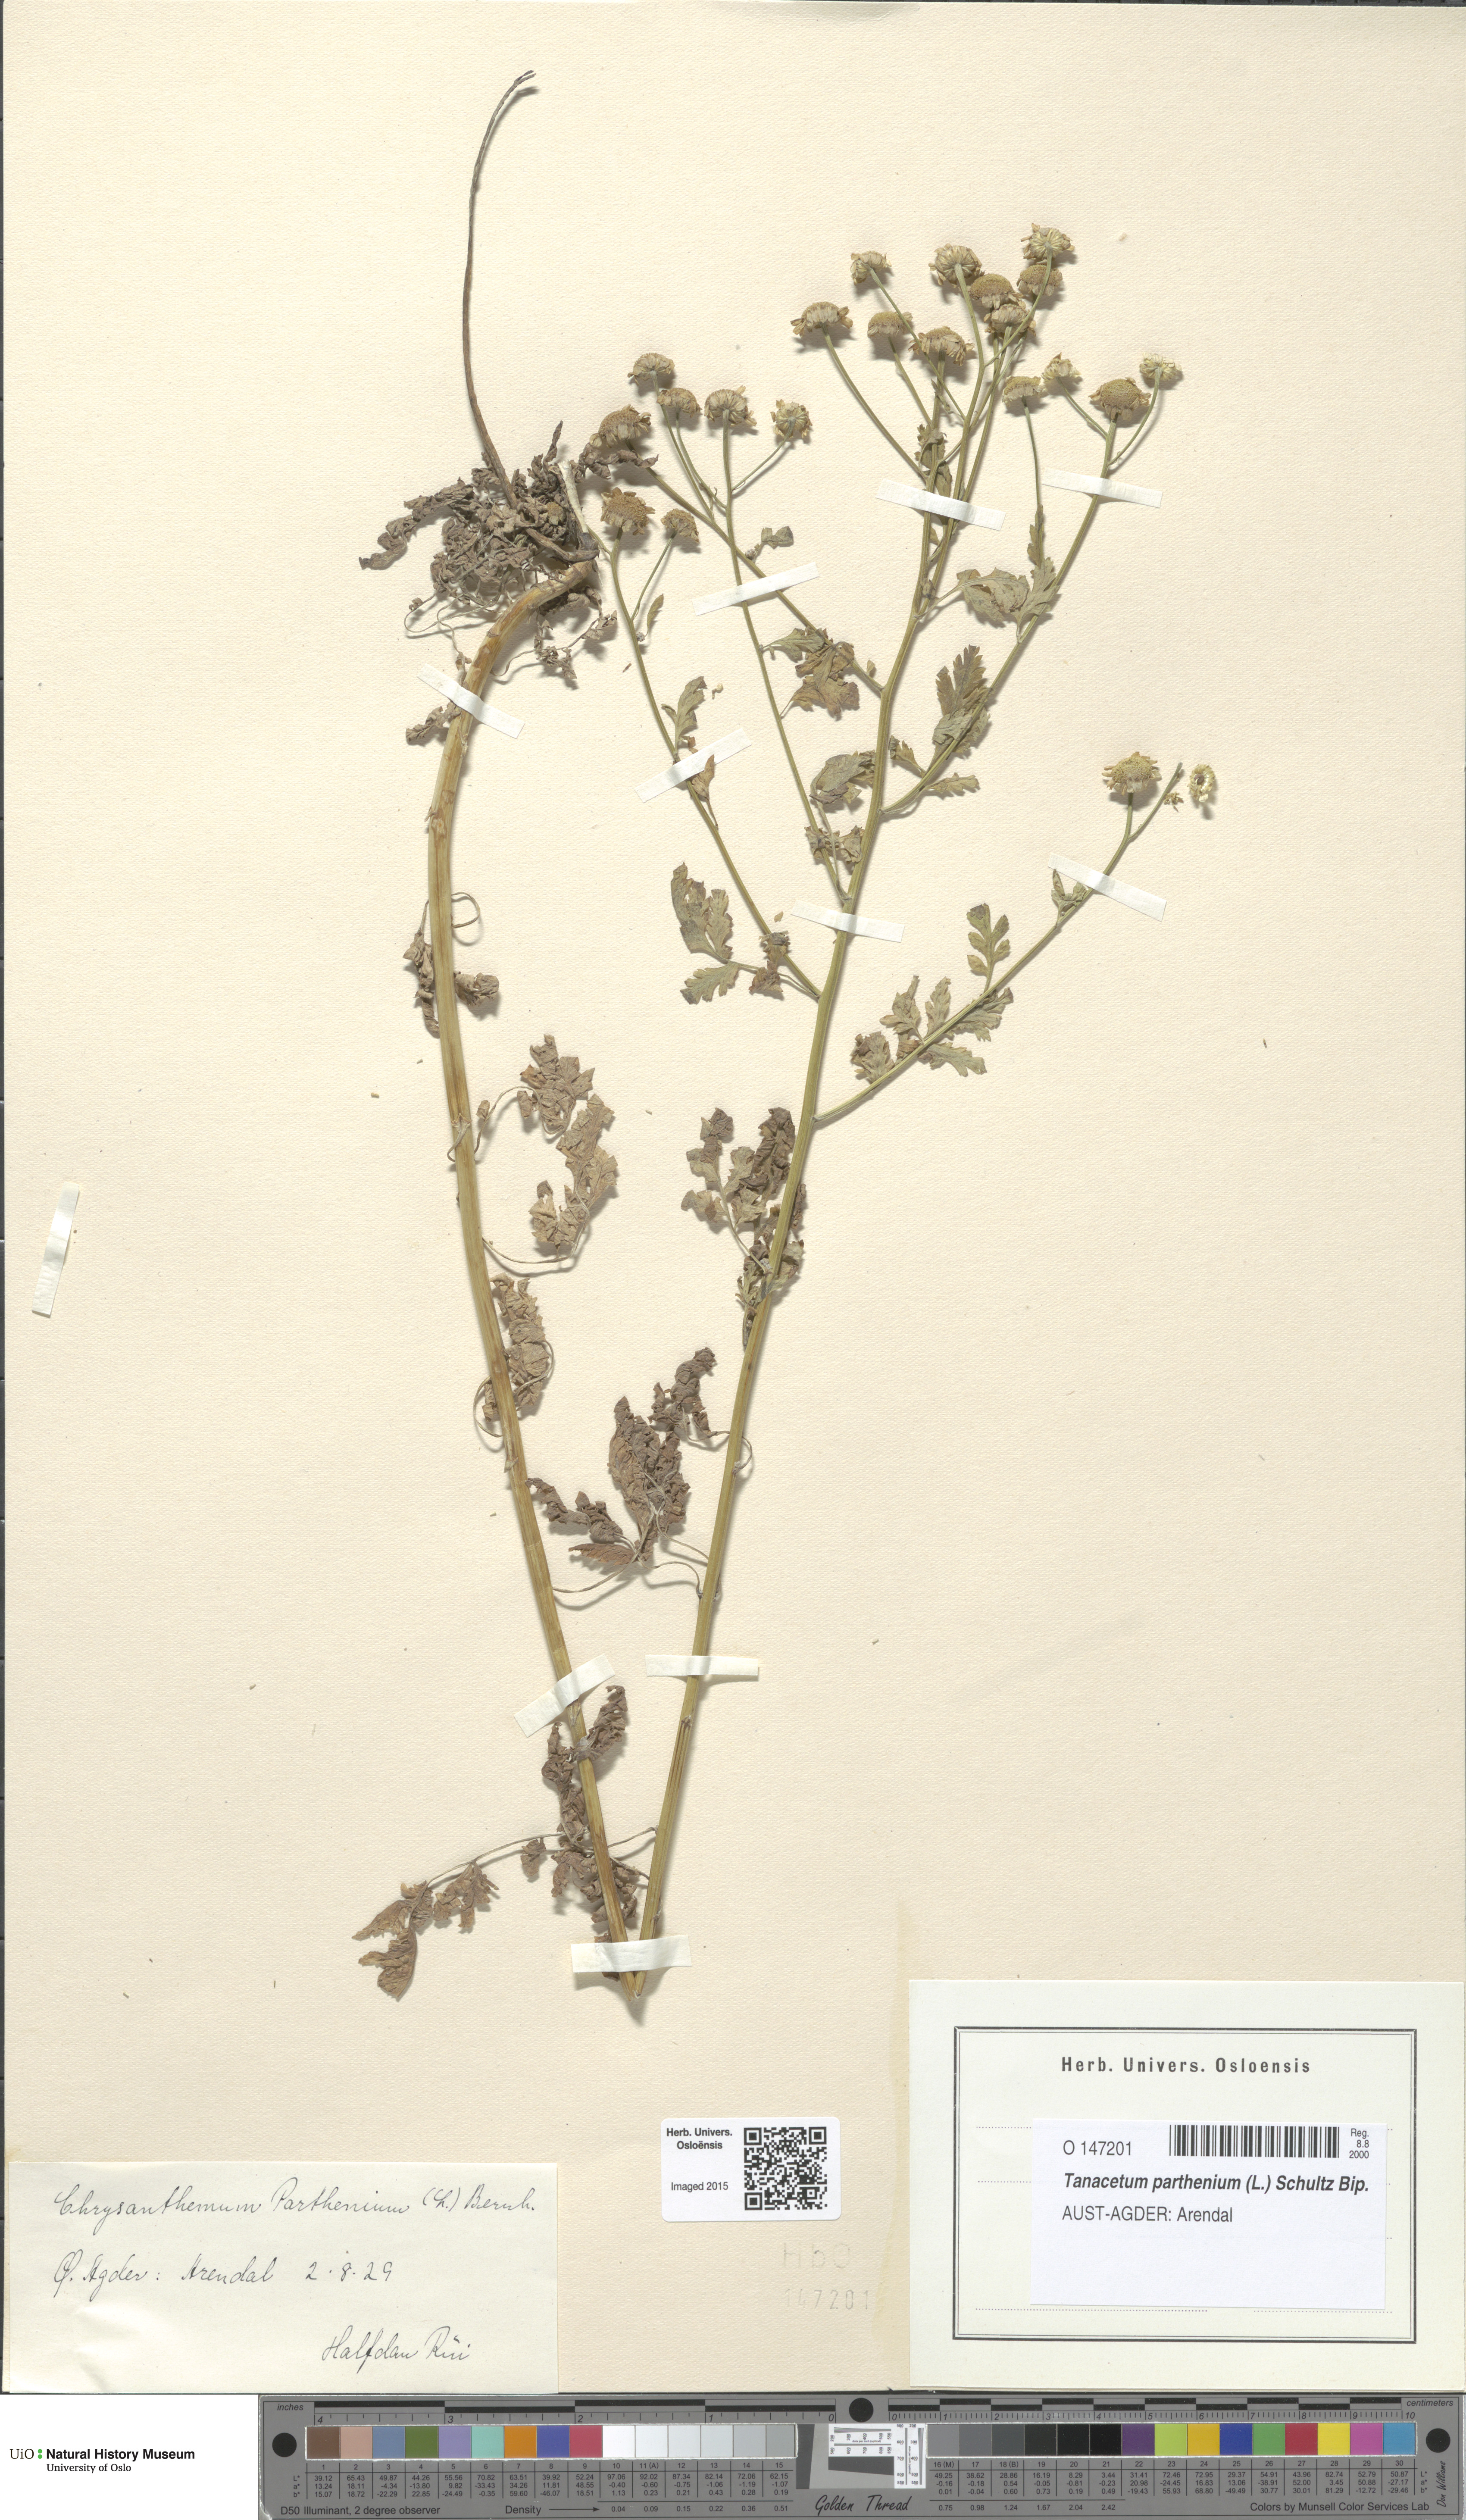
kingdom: Plantae
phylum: Tracheophyta
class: Magnoliopsida
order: Asterales
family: Asteraceae
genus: Tanacetum
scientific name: Tanacetum parthenium
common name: Feverfew
